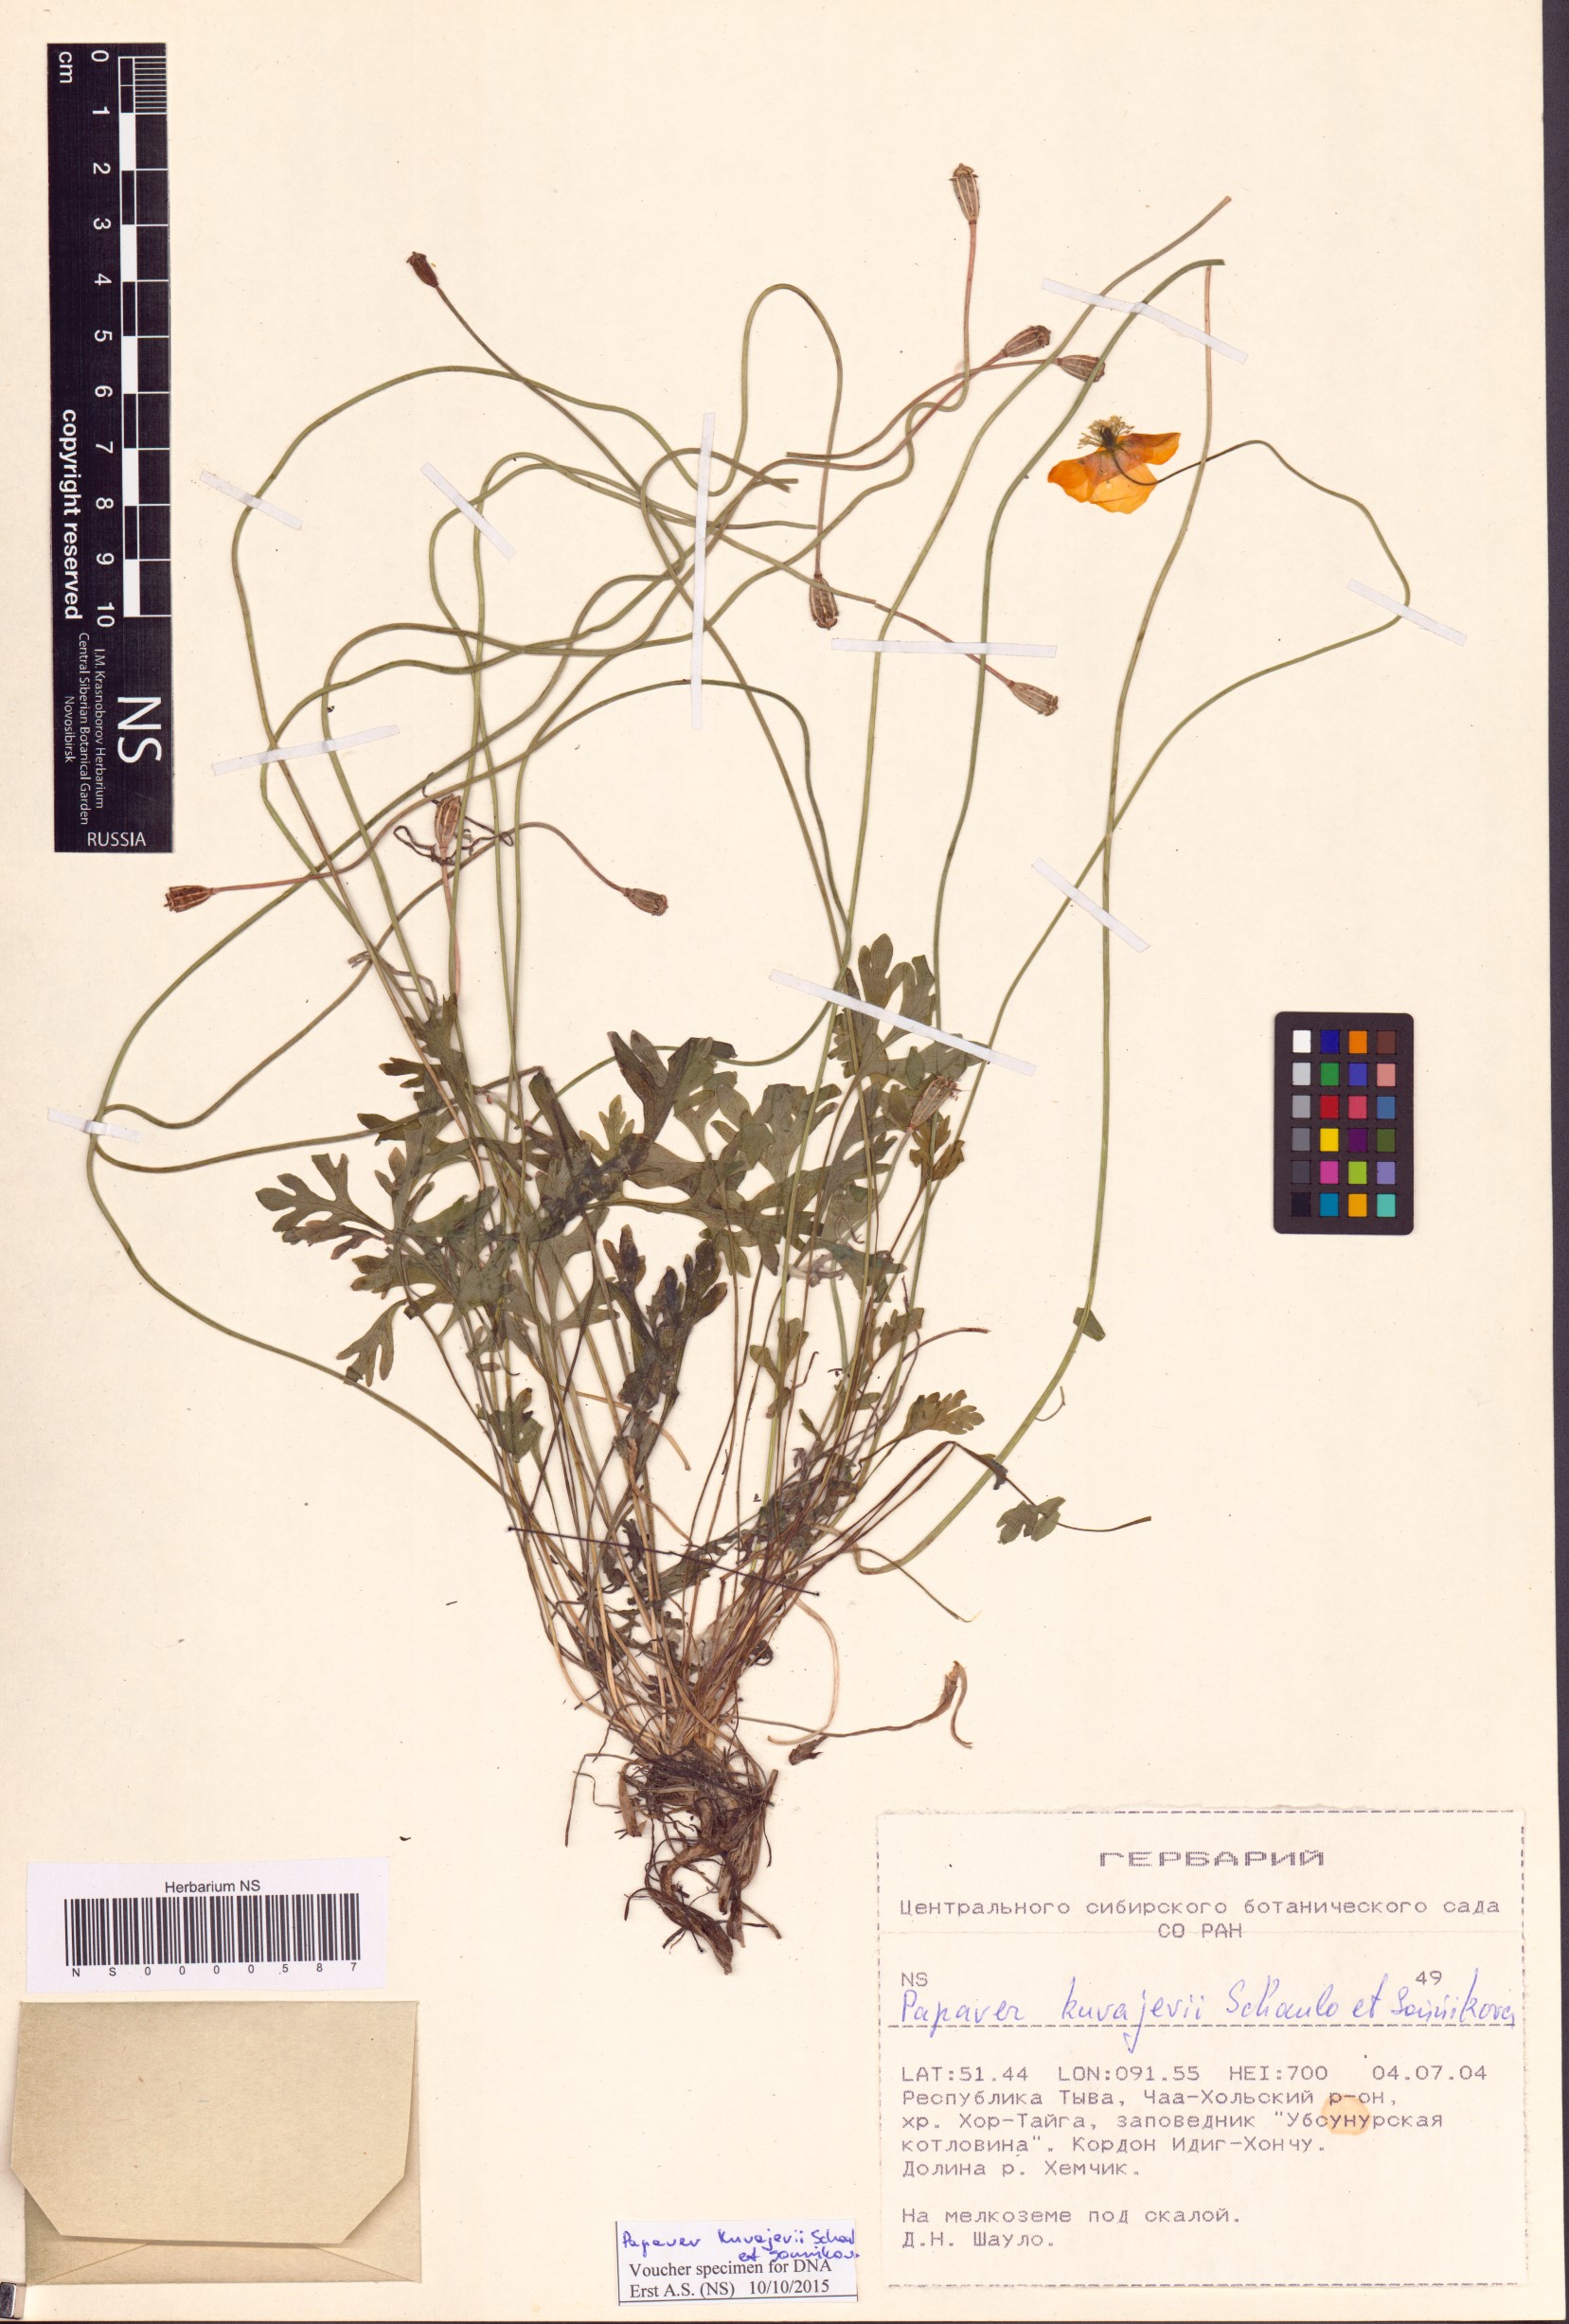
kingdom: Plantae
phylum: Tracheophyta
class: Magnoliopsida
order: Ranunculales
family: Papaveraceae
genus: Papaver
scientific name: Papaver kuvajevii
